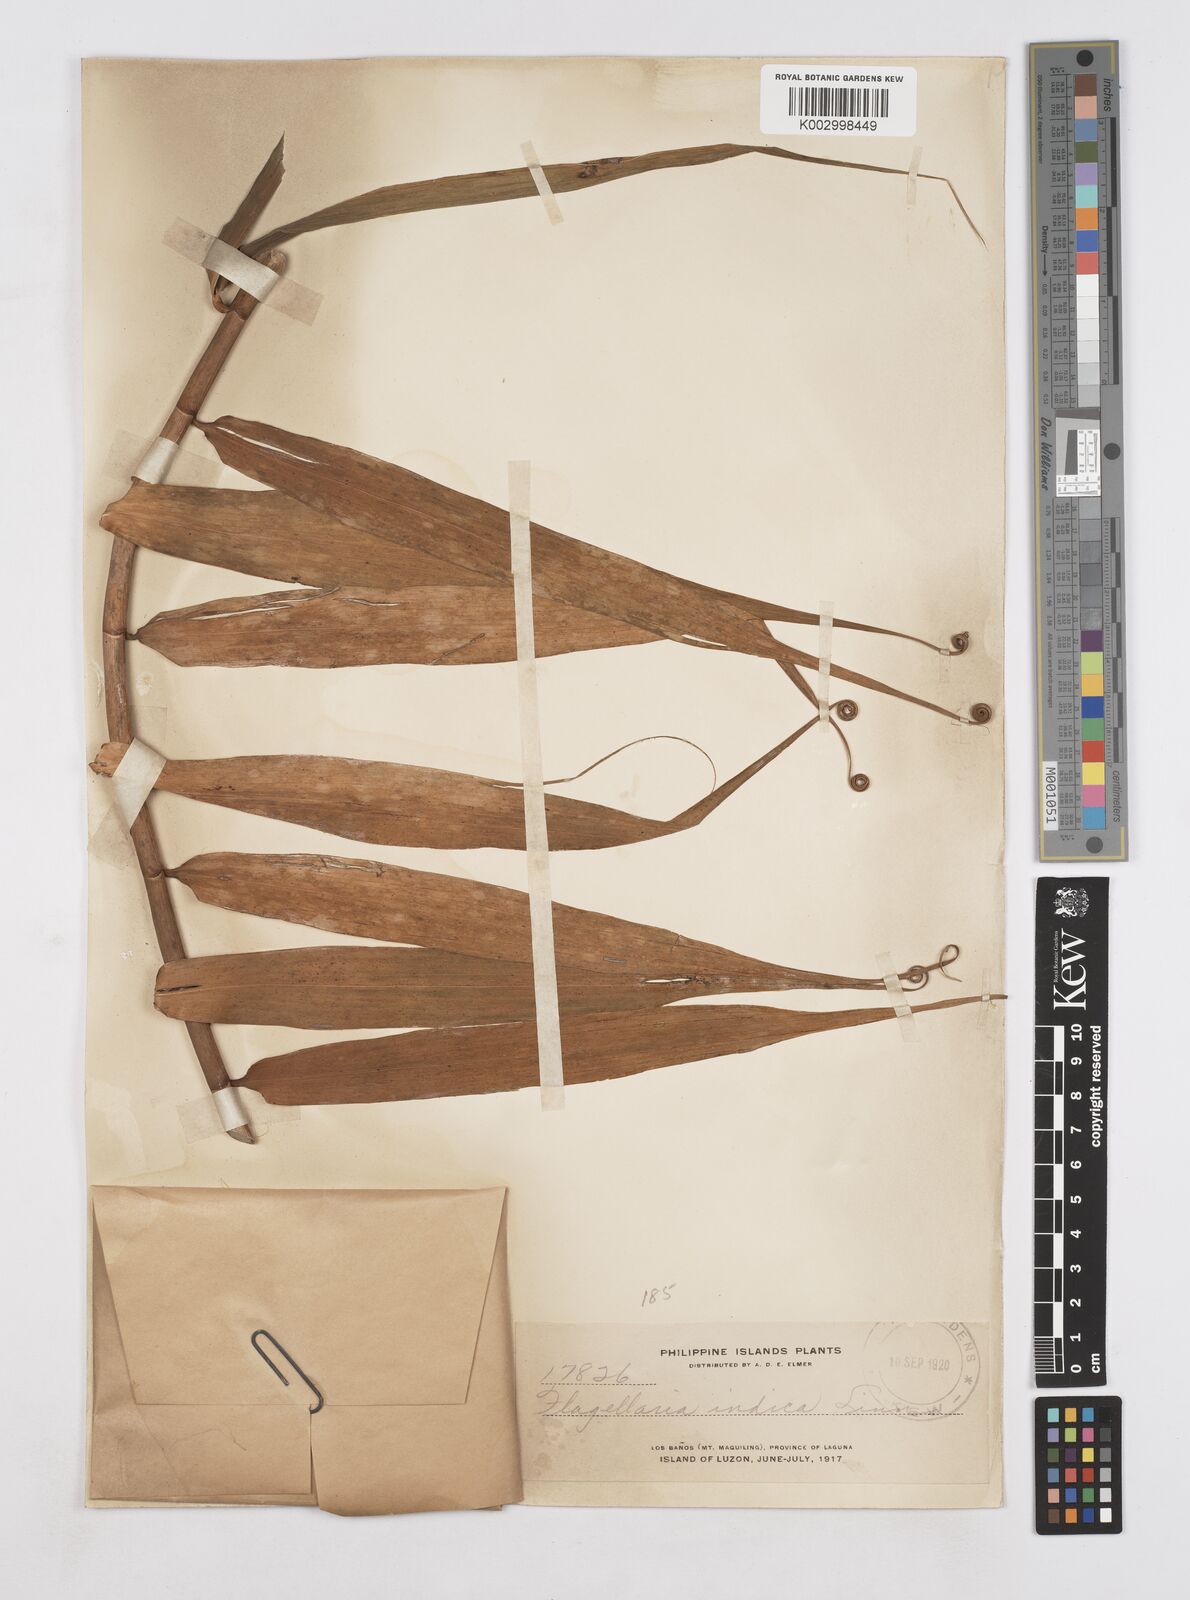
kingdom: Plantae
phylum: Tracheophyta
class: Liliopsida
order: Poales
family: Flagellariaceae
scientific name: Flagellariaceae
